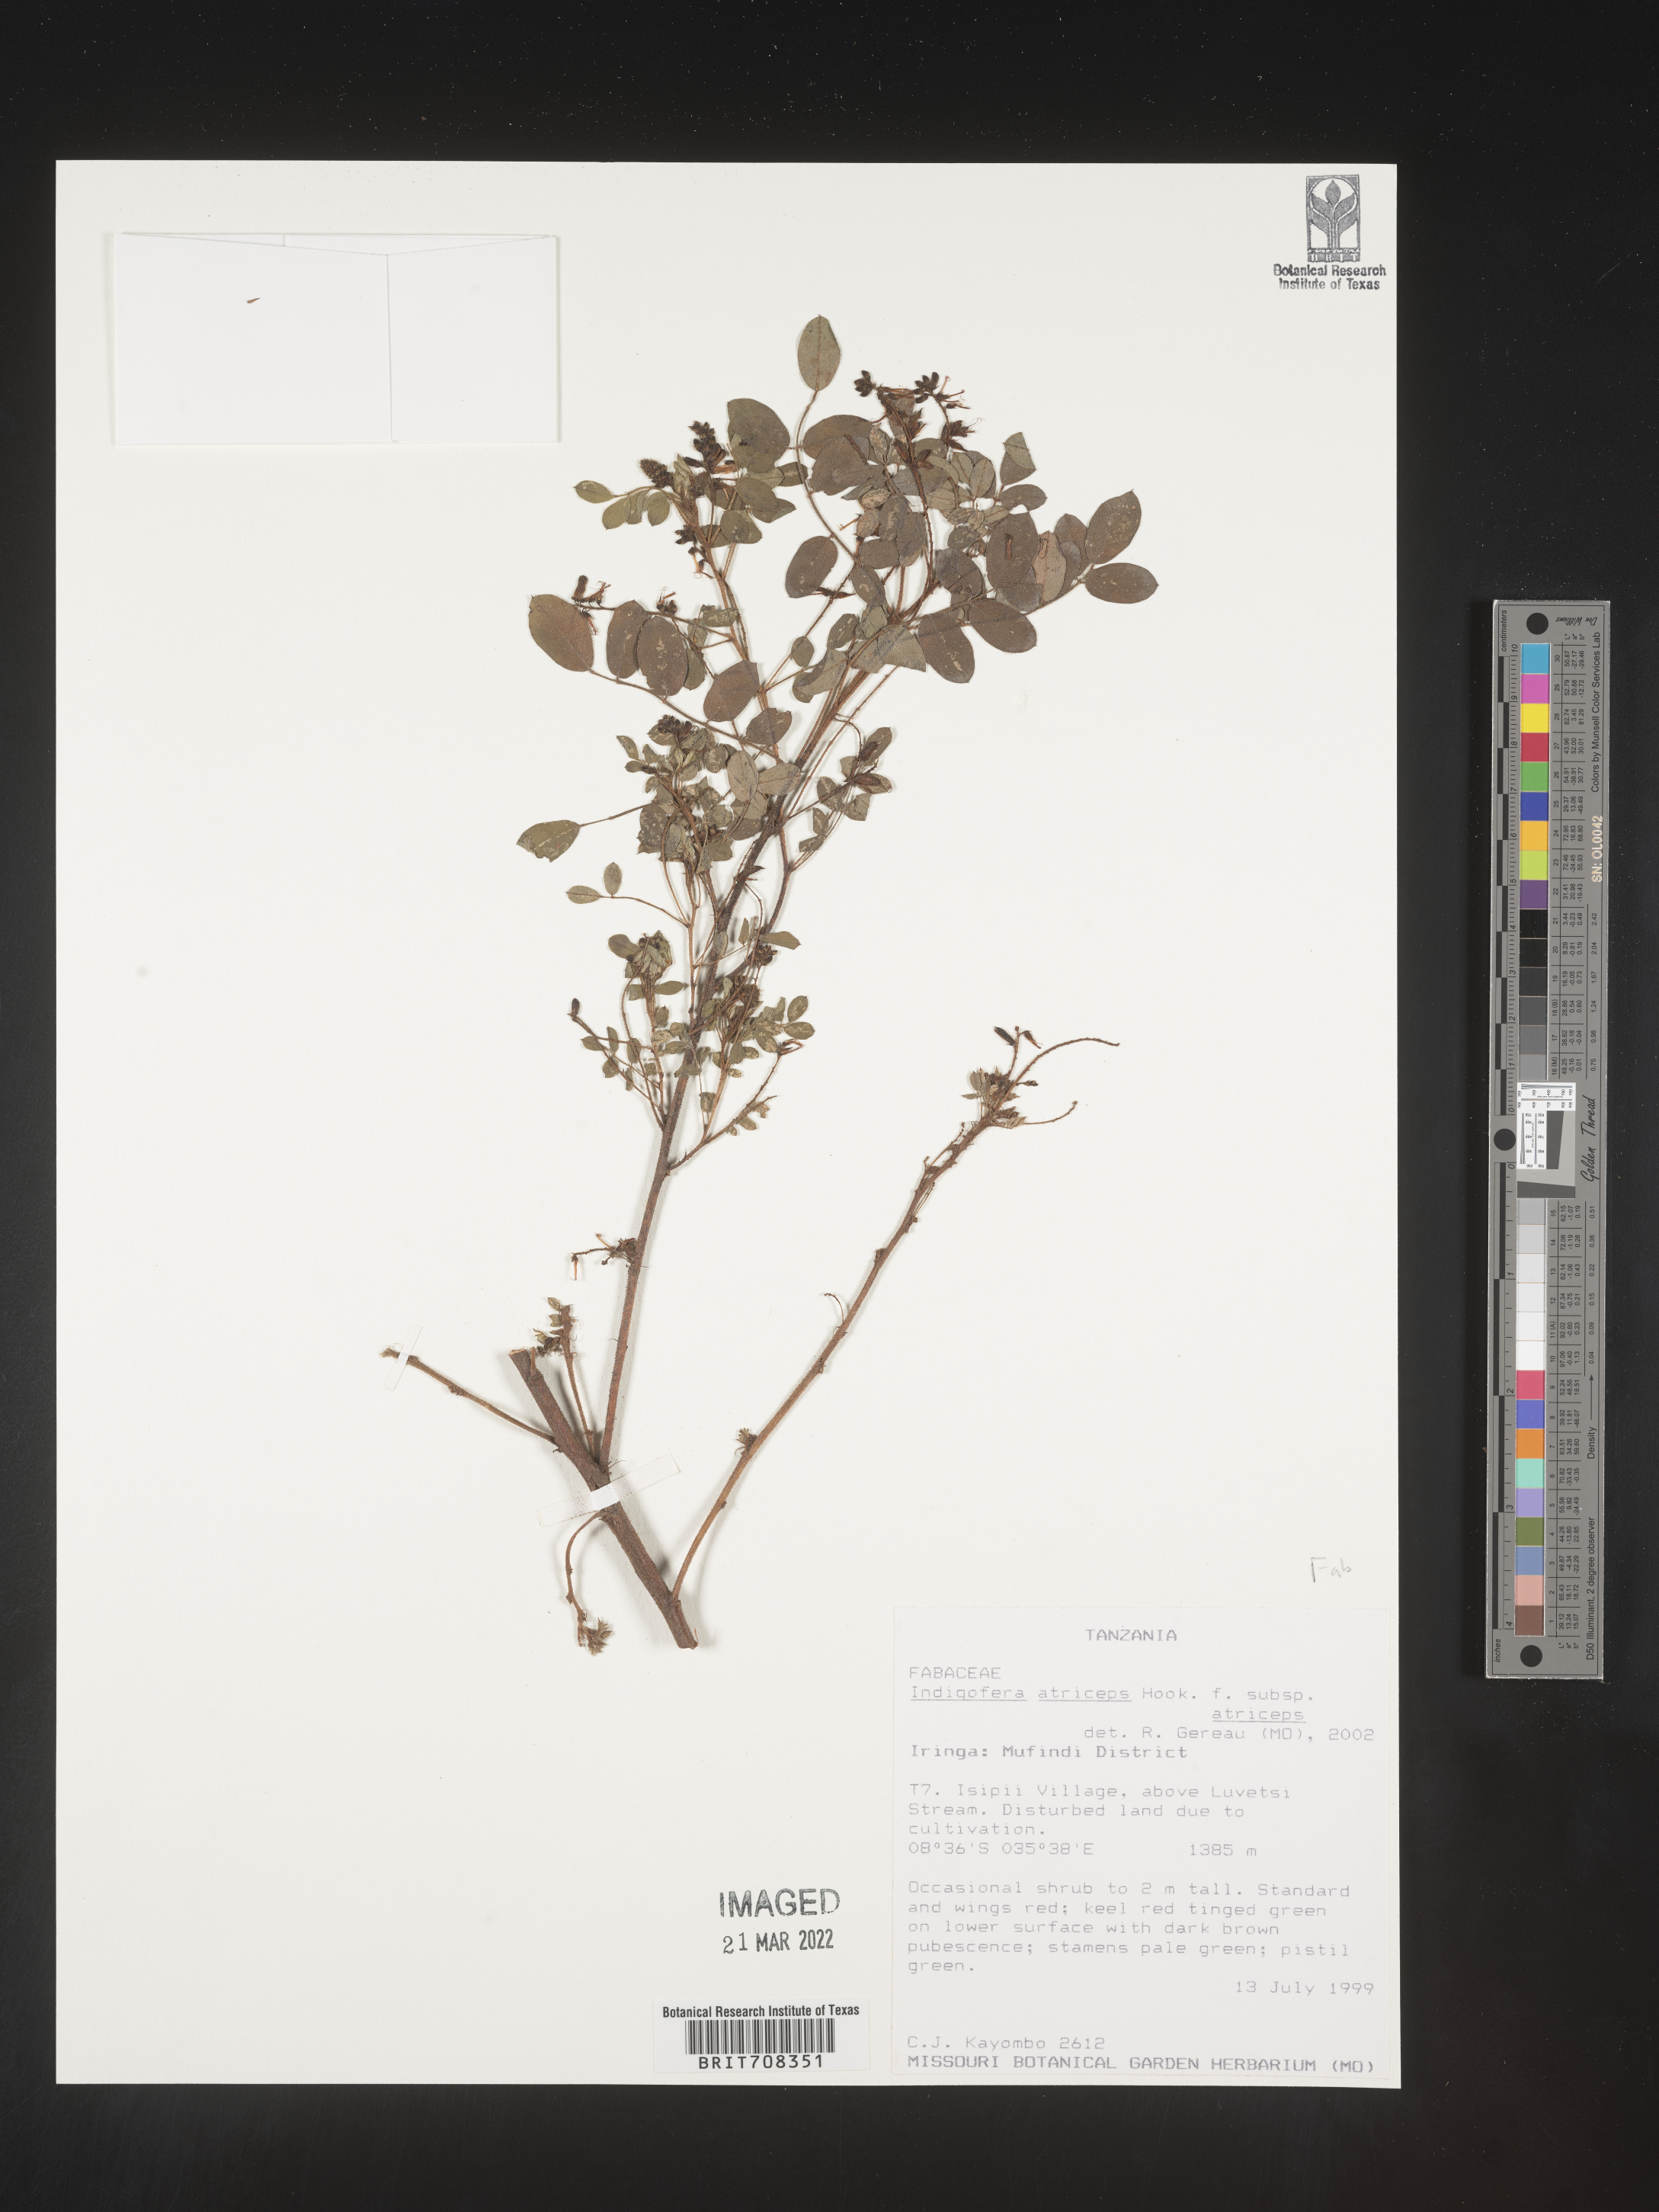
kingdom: Plantae
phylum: Tracheophyta
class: Magnoliopsida
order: Fabales
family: Fabaceae
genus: Indigofera
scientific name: Indigofera
